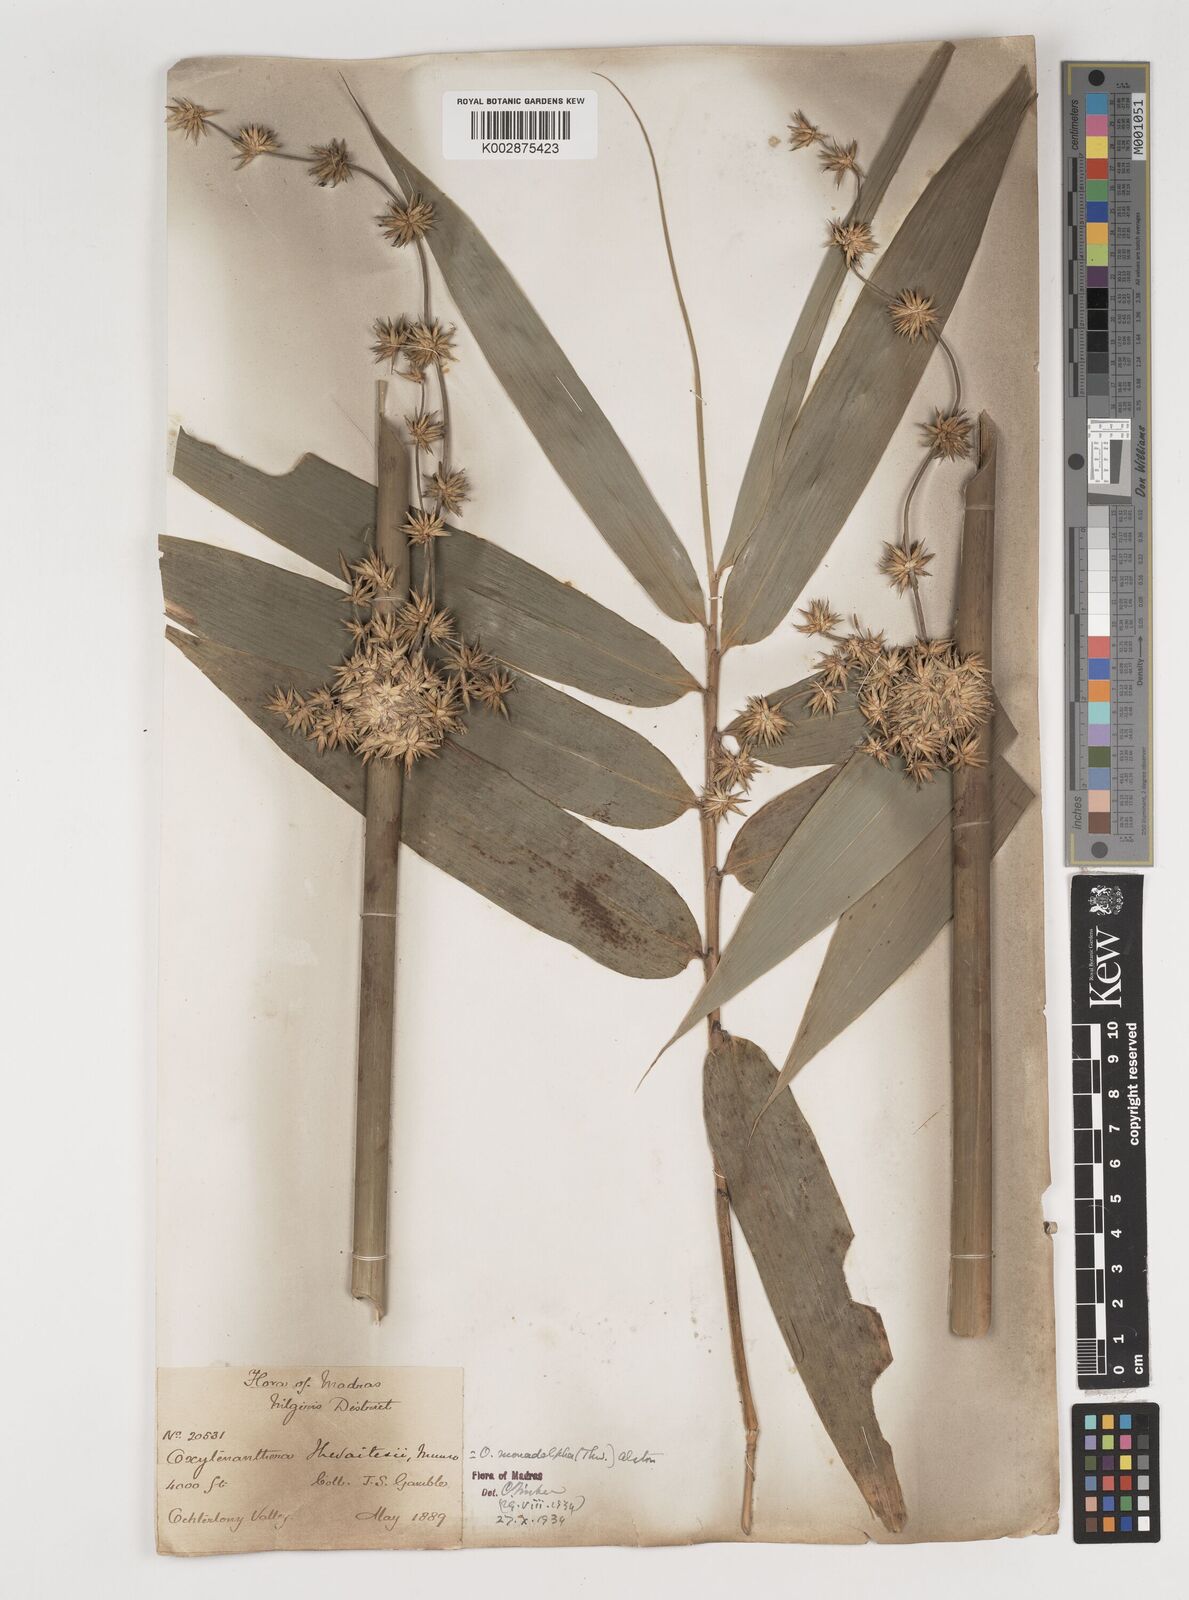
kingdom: Plantae
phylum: Tracheophyta
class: Liliopsida
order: Poales
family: Poaceae
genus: Pseudoxytenanthera
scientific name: Pseudoxytenanthera monadelpha
